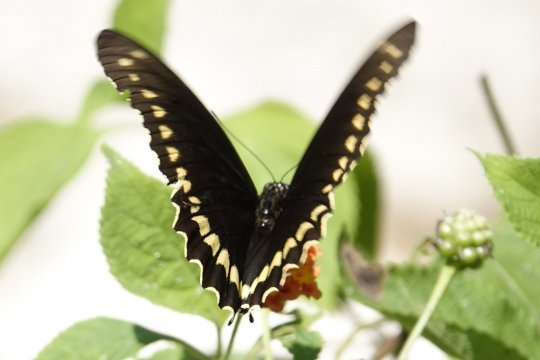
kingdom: Animalia
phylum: Arthropoda
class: Insecta
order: Lepidoptera
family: Papilionidae
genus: Battus
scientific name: Battus polydamas
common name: Polydamas Swallowtail
